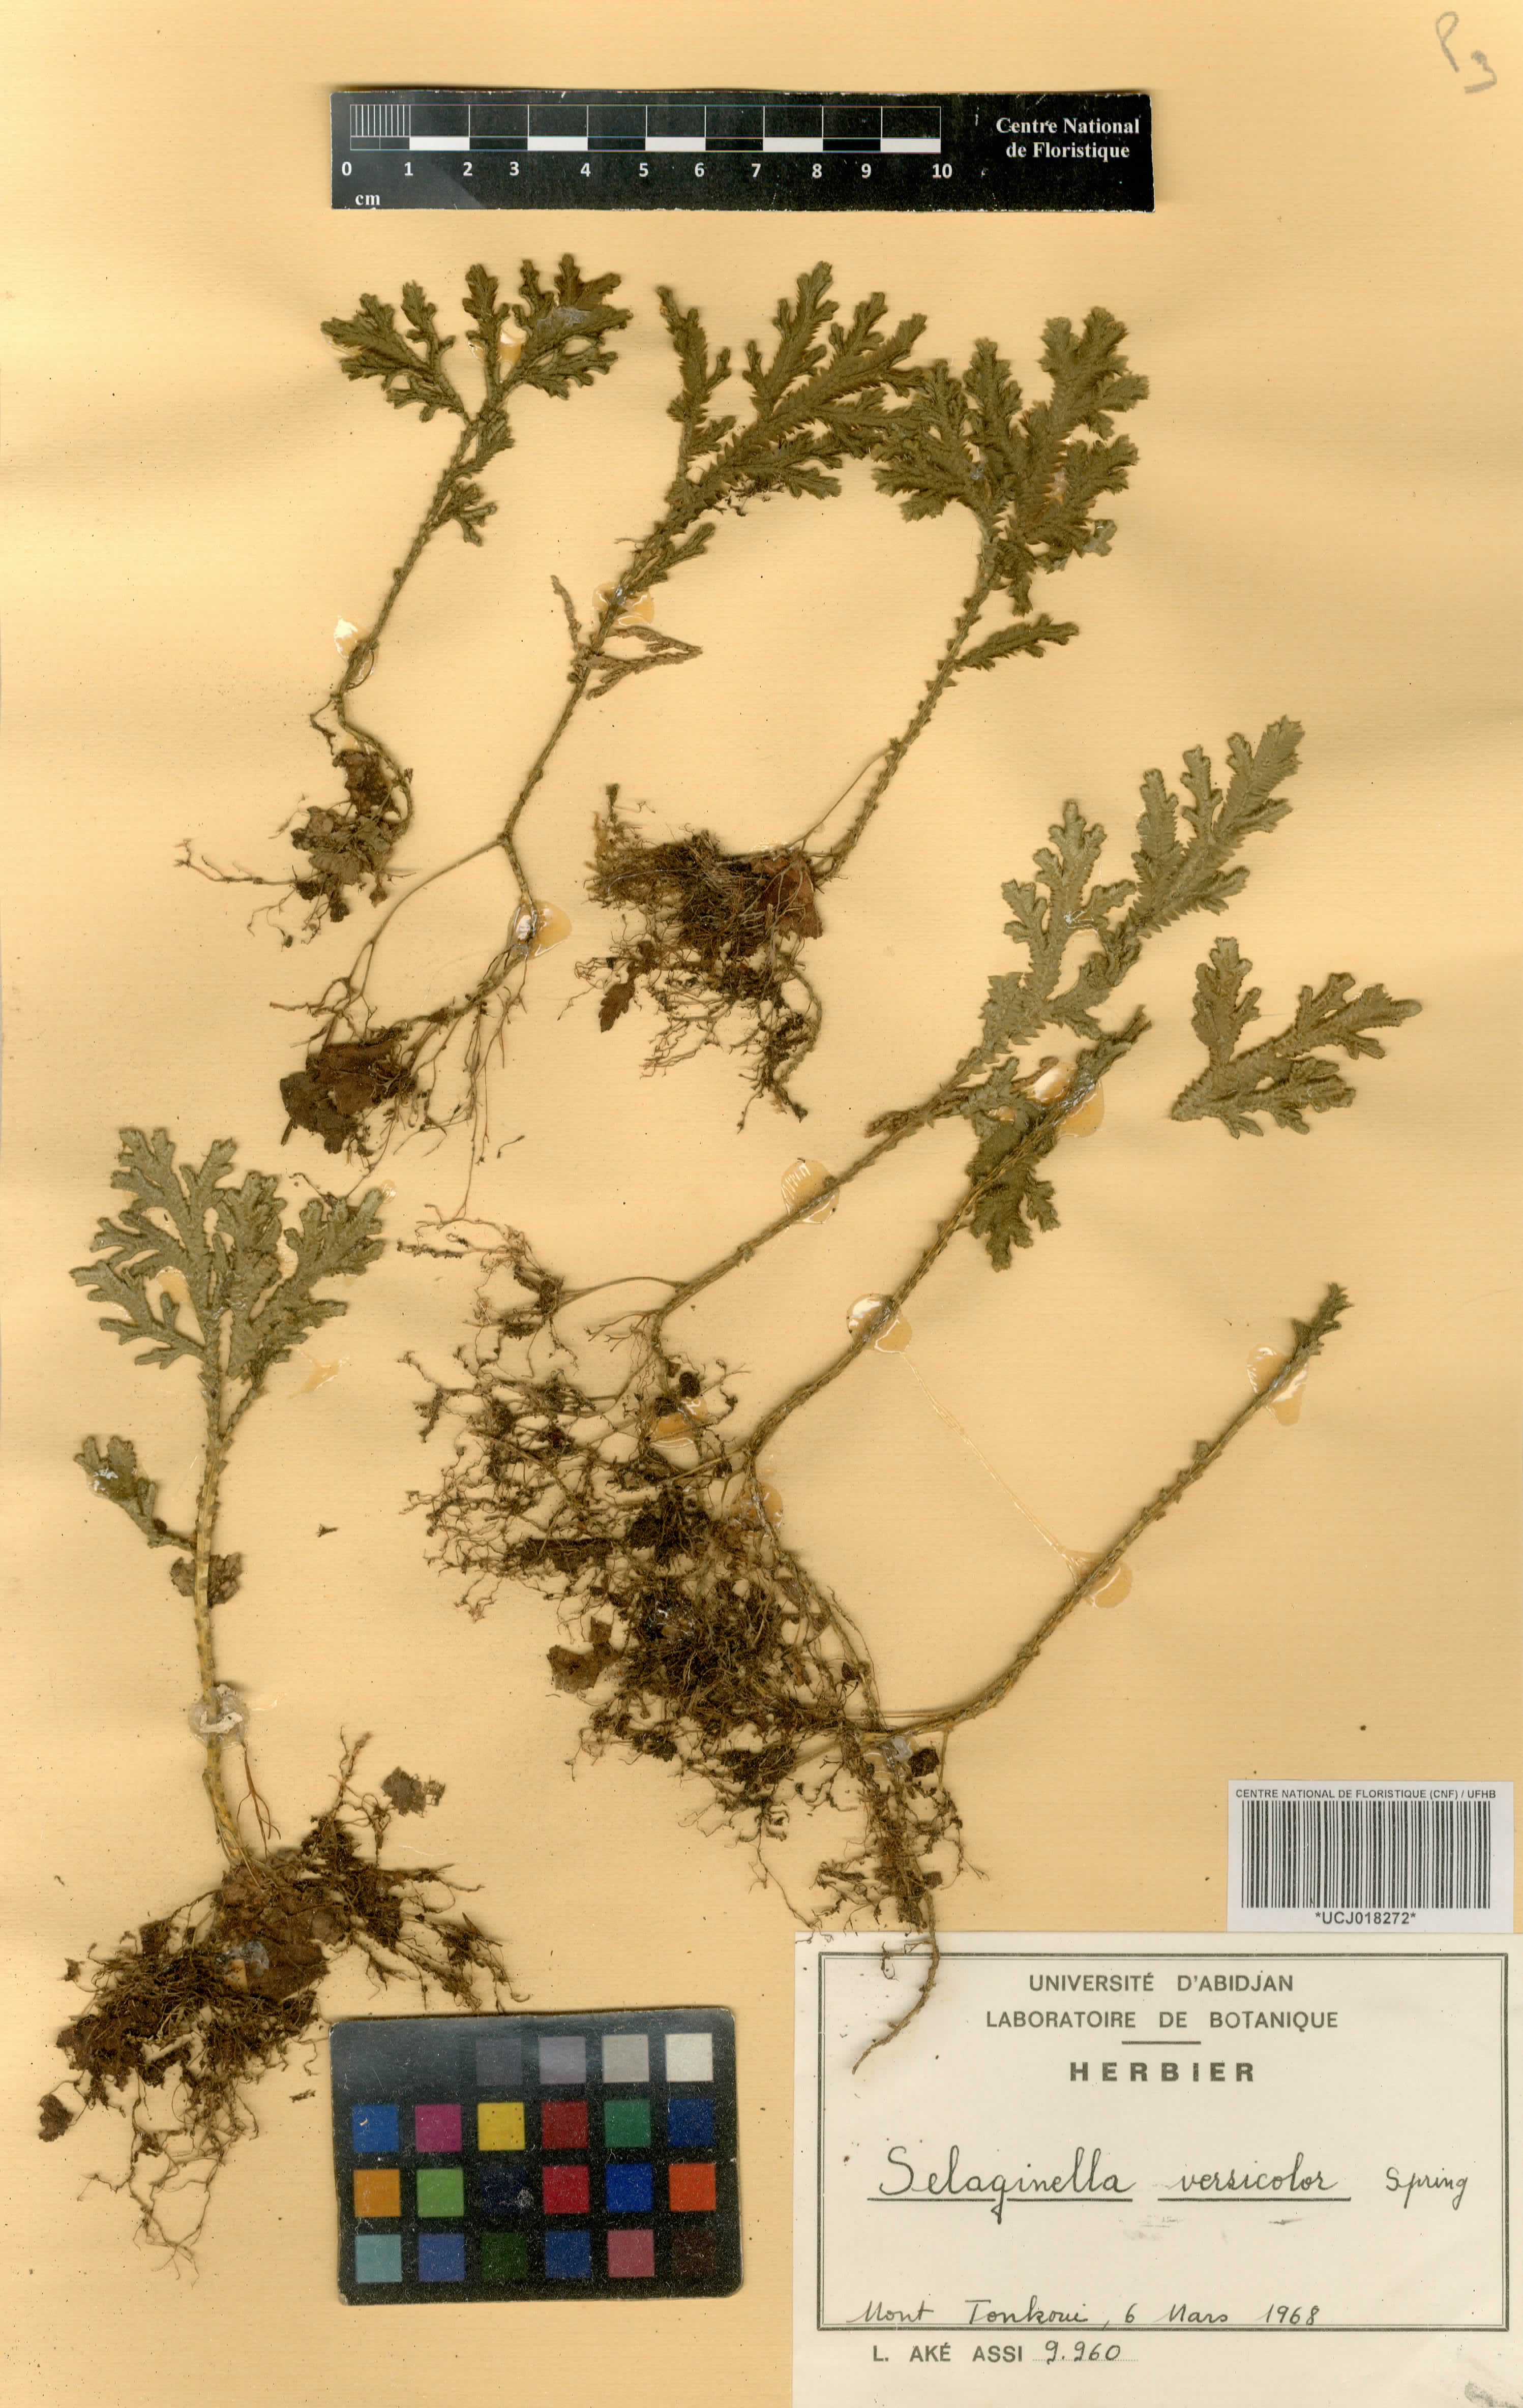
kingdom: Plantae
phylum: Tracheophyta
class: Lycopodiopsida
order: Selaginellales
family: Selaginellaceae
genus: Selaginella
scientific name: Selaginella versicolor
